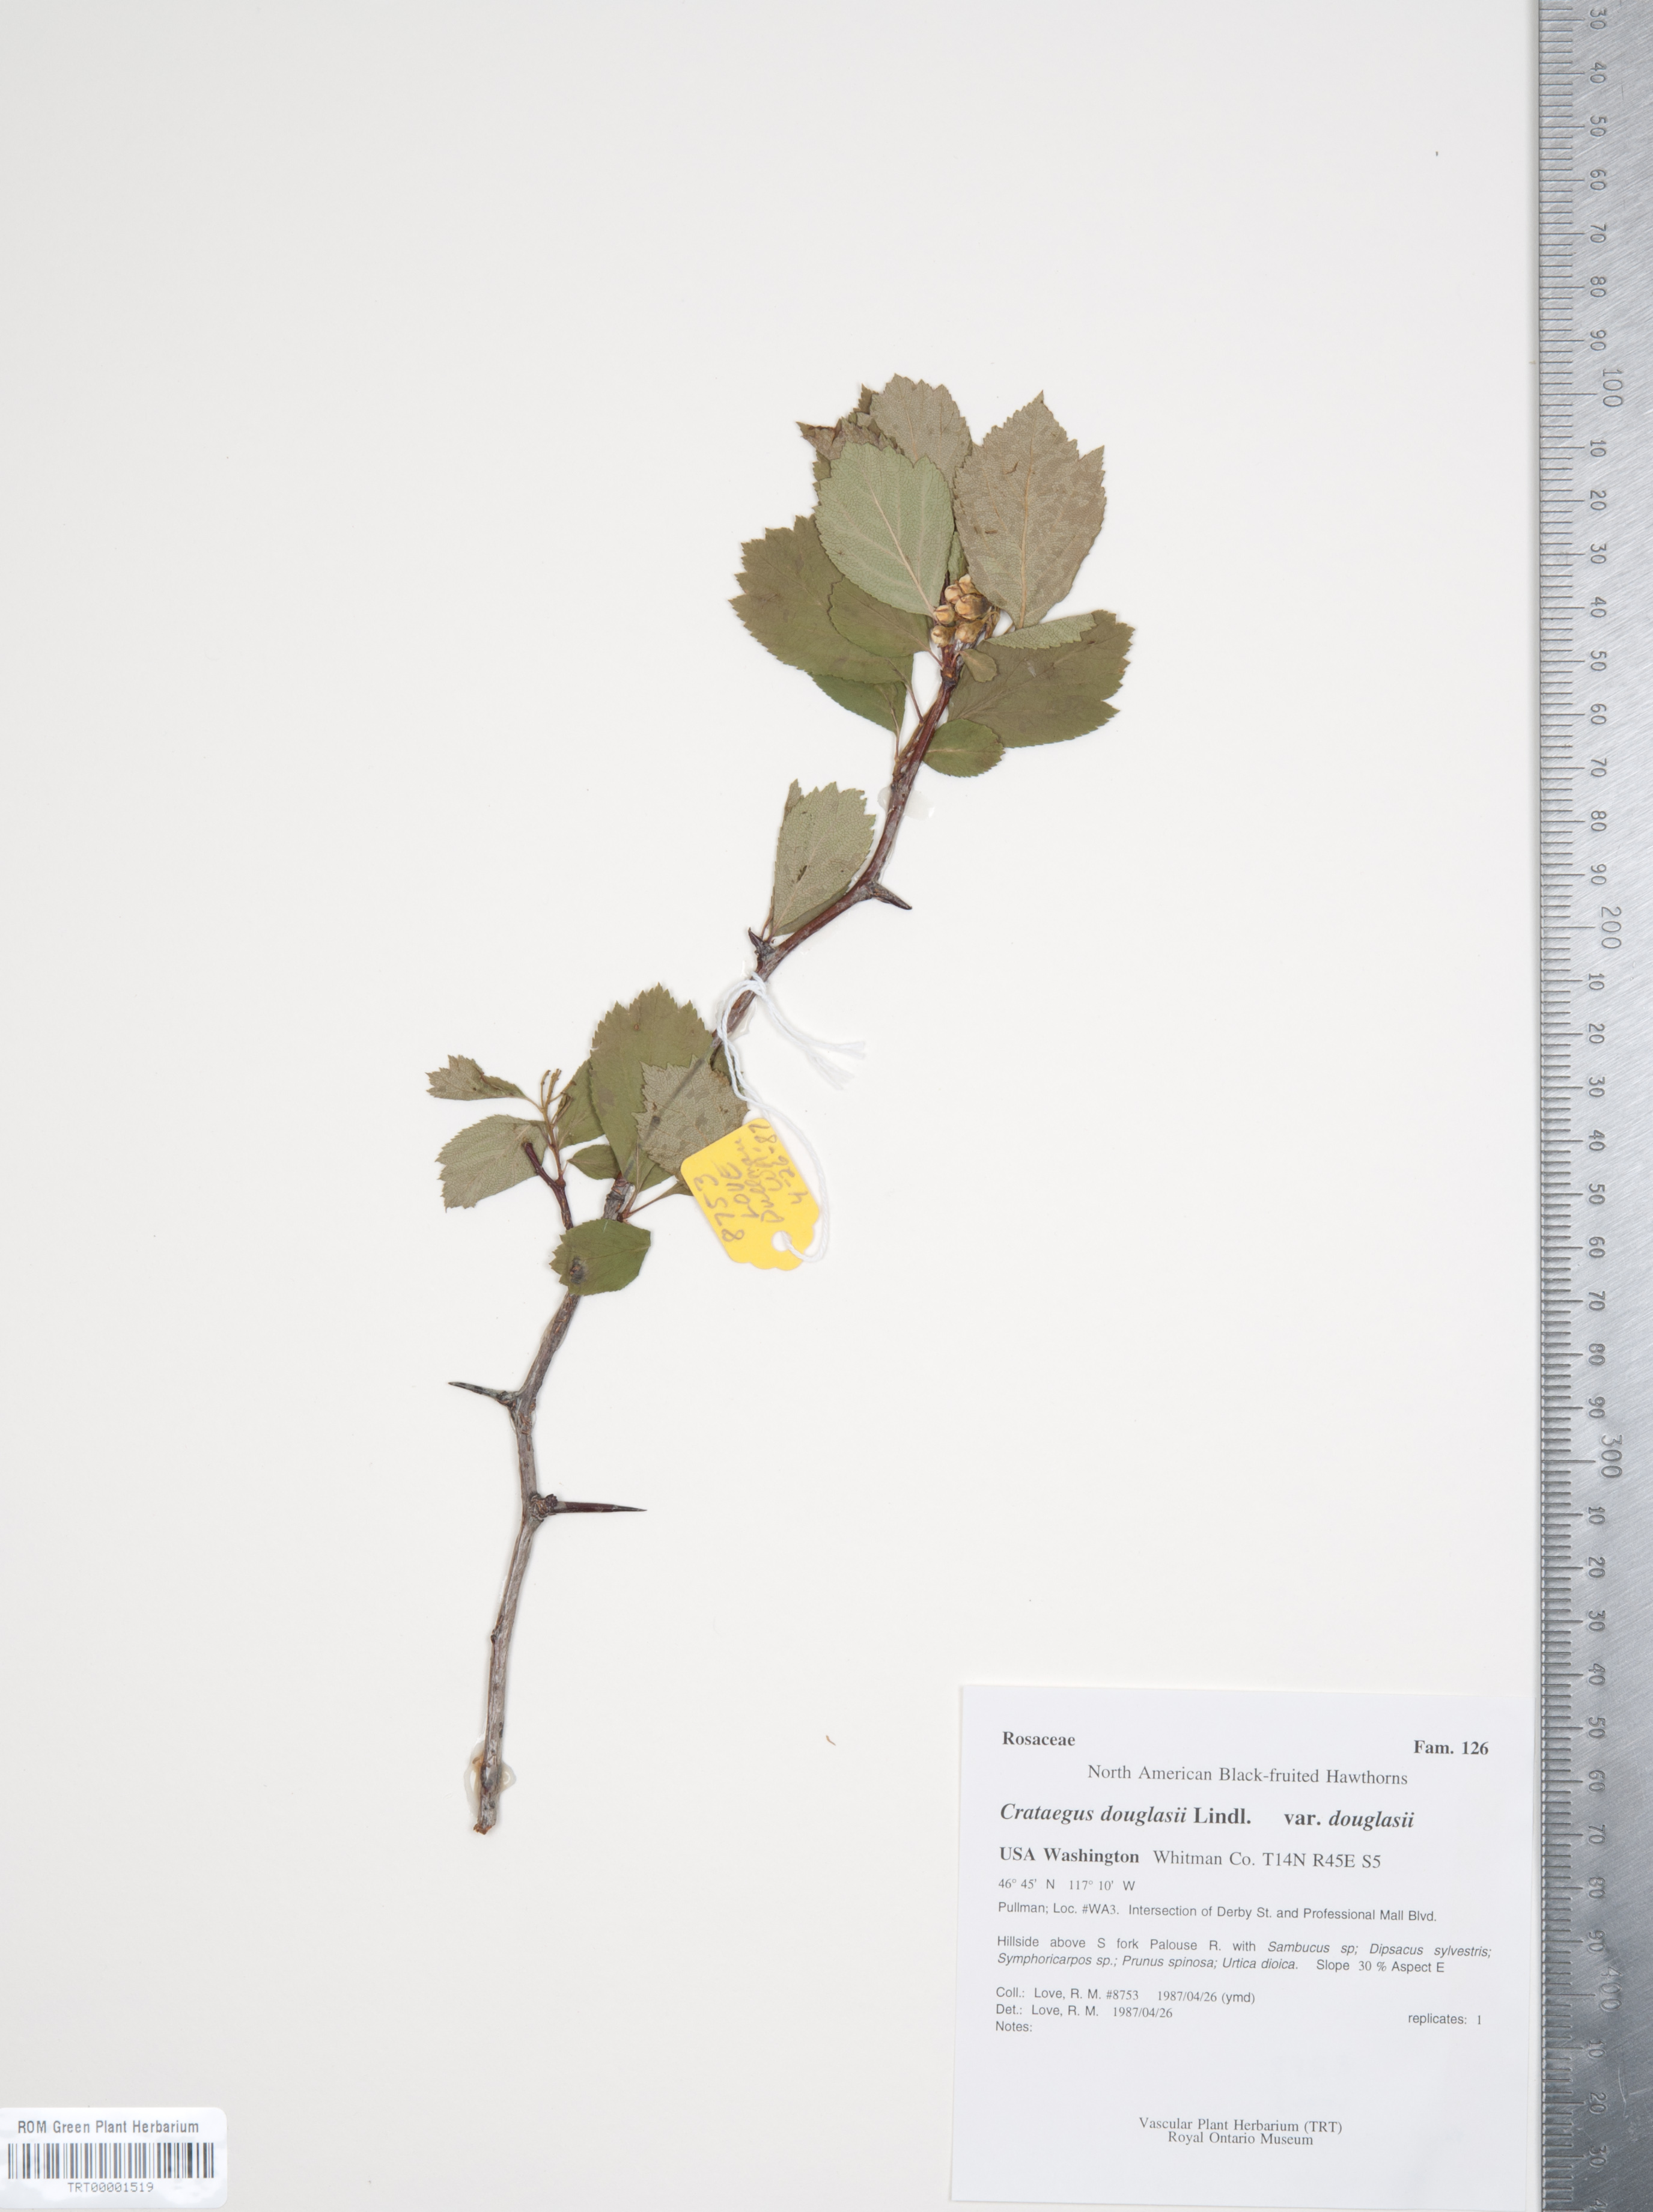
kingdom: Plantae
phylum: Tracheophyta
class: Magnoliopsida
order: Rosales
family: Rosaceae
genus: Crataegus
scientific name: Crataegus douglasii
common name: Black hawthorn
